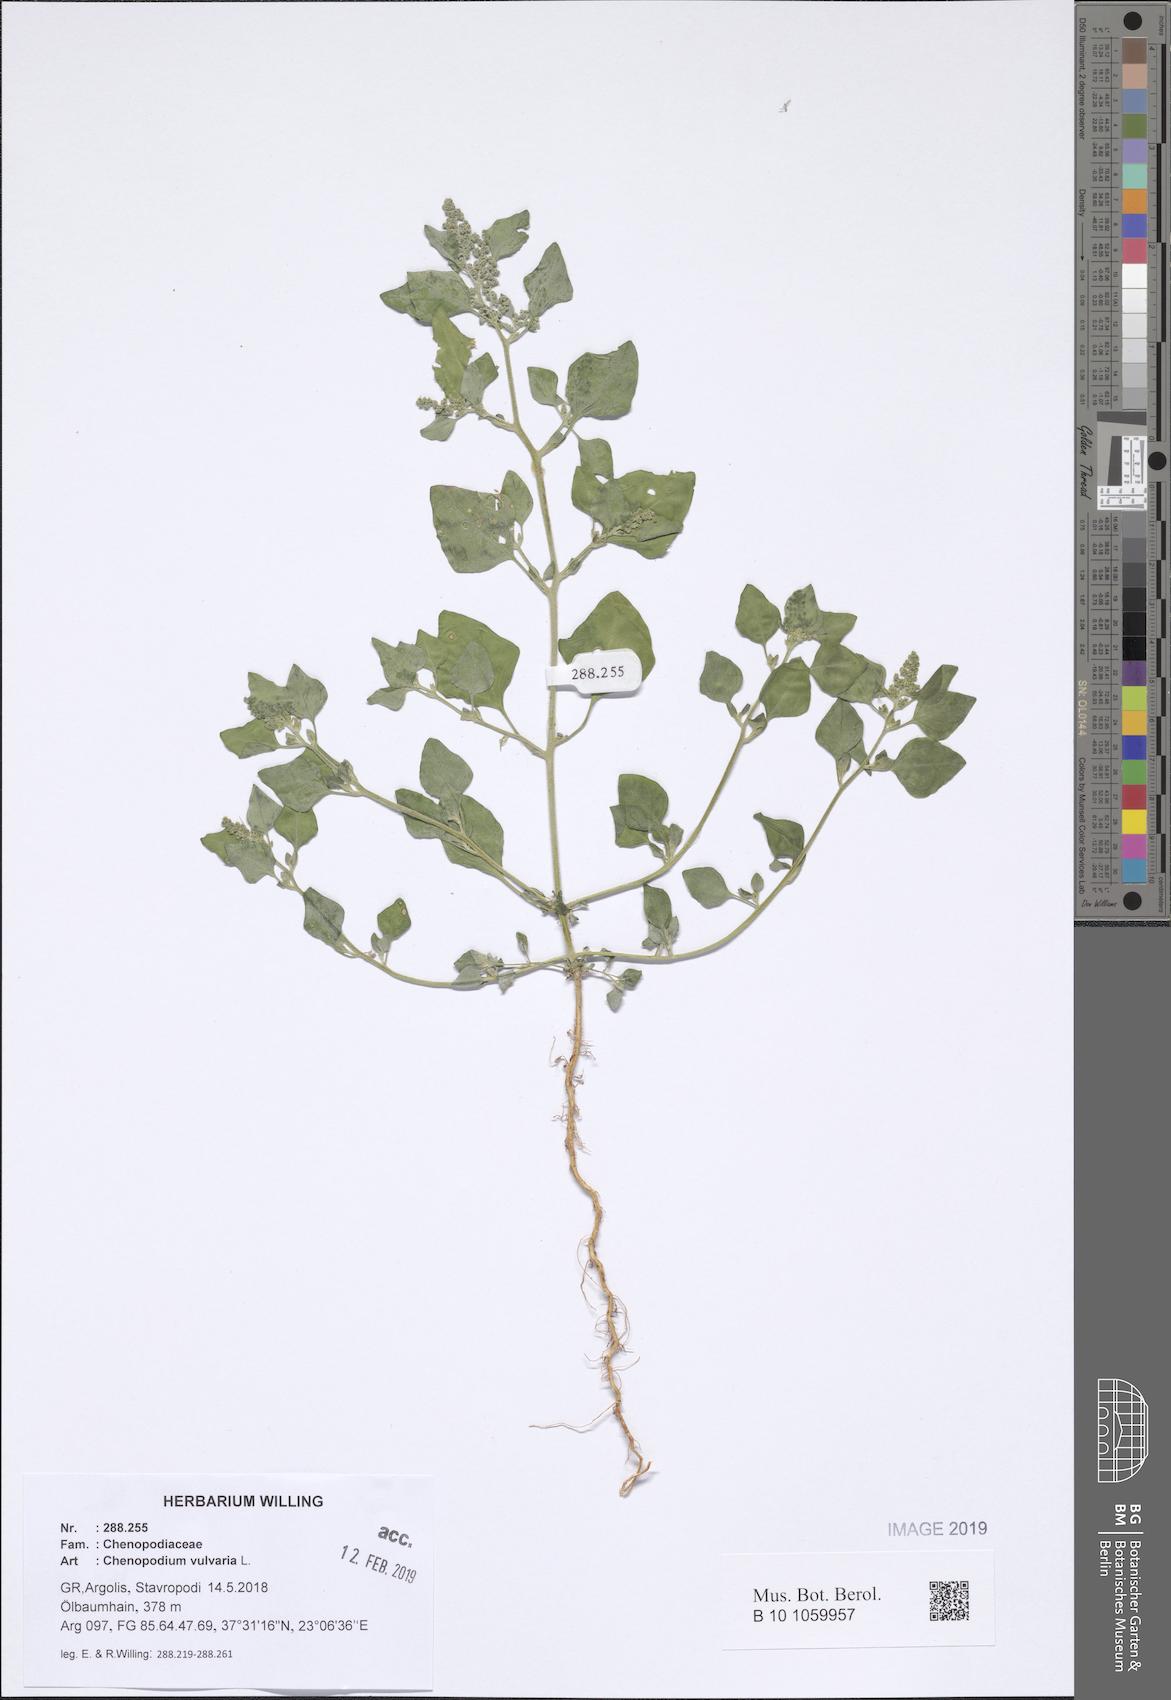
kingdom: Plantae
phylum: Tracheophyta
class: Magnoliopsida
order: Caryophyllales
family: Amaranthaceae
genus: Chenopodium
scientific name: Chenopodium vulvaria
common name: Stinking goosefoot
